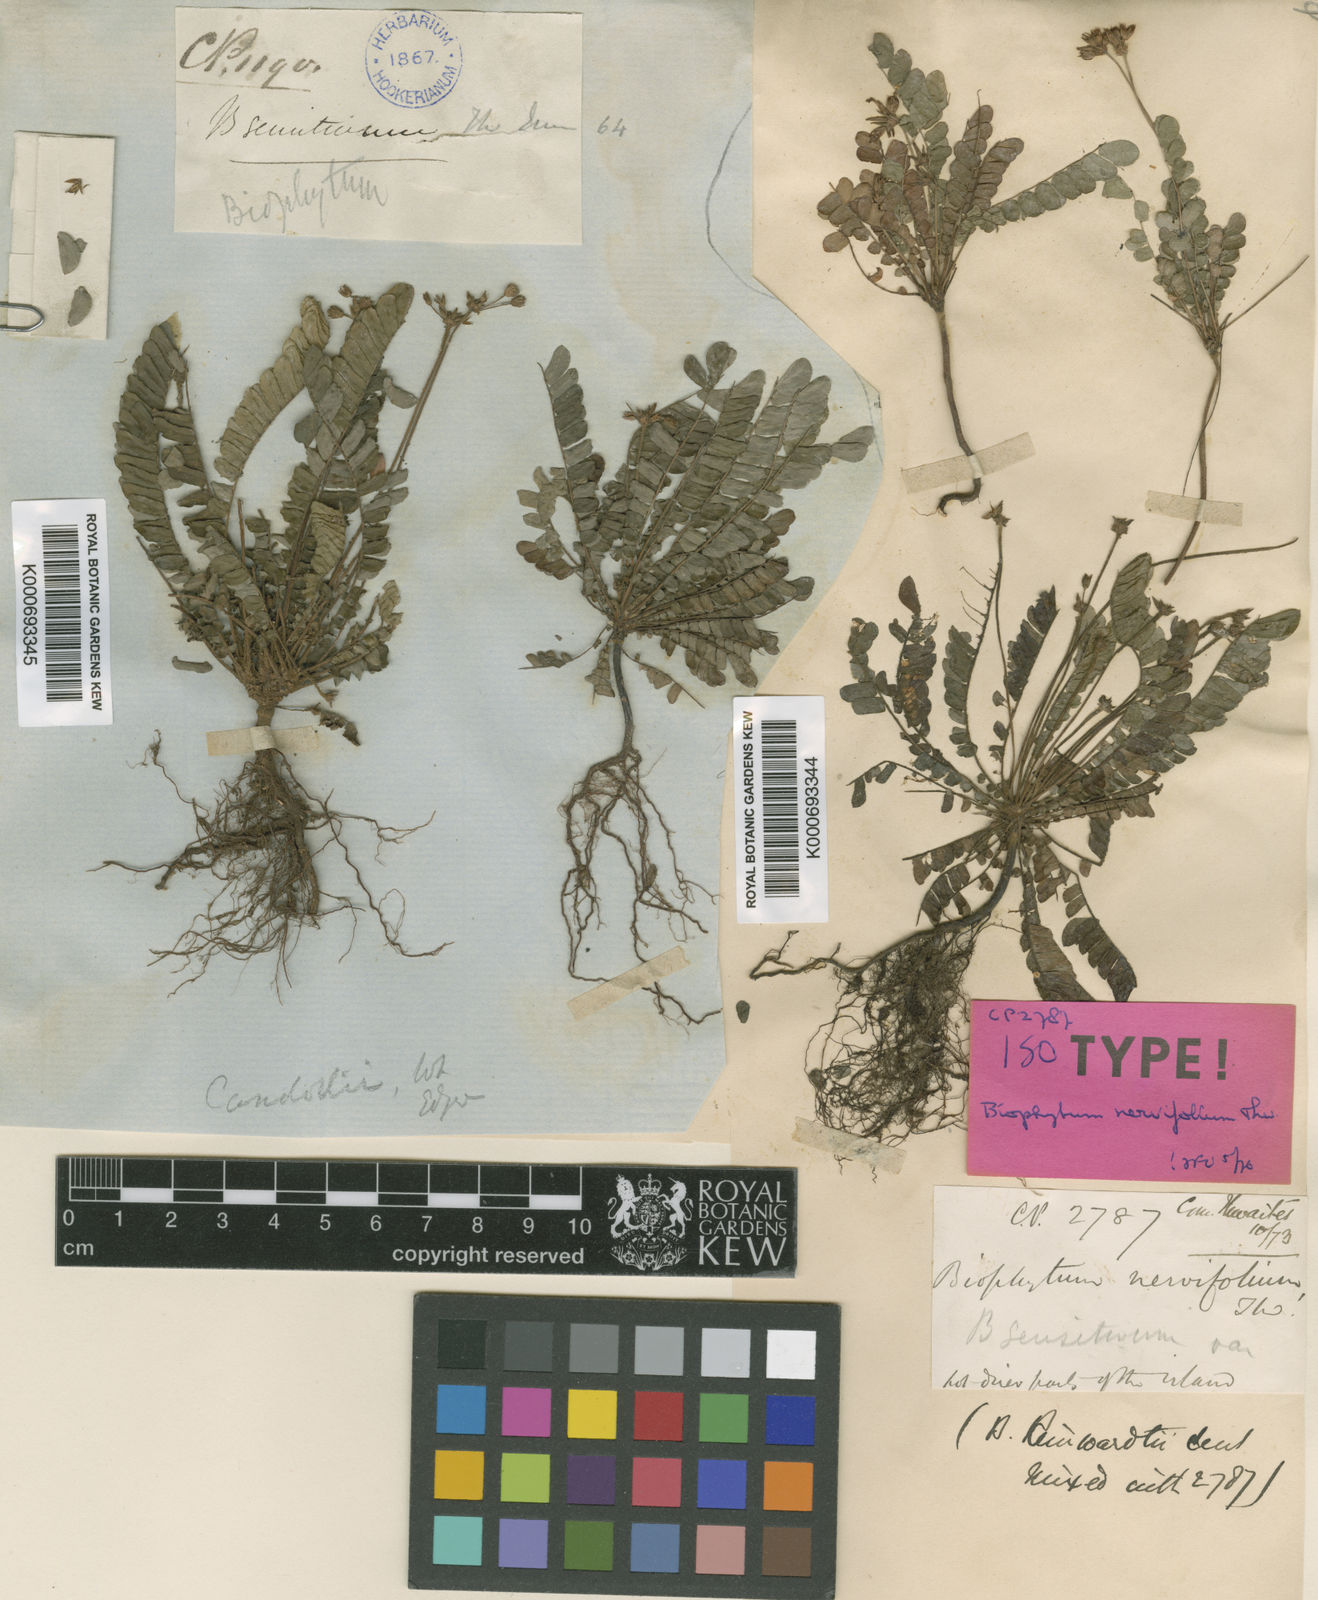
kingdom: Plantae
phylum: Tracheophyta
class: Magnoliopsida
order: Oxalidales
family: Oxalidaceae
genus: Biophytum
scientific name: Biophytum nervifolium
